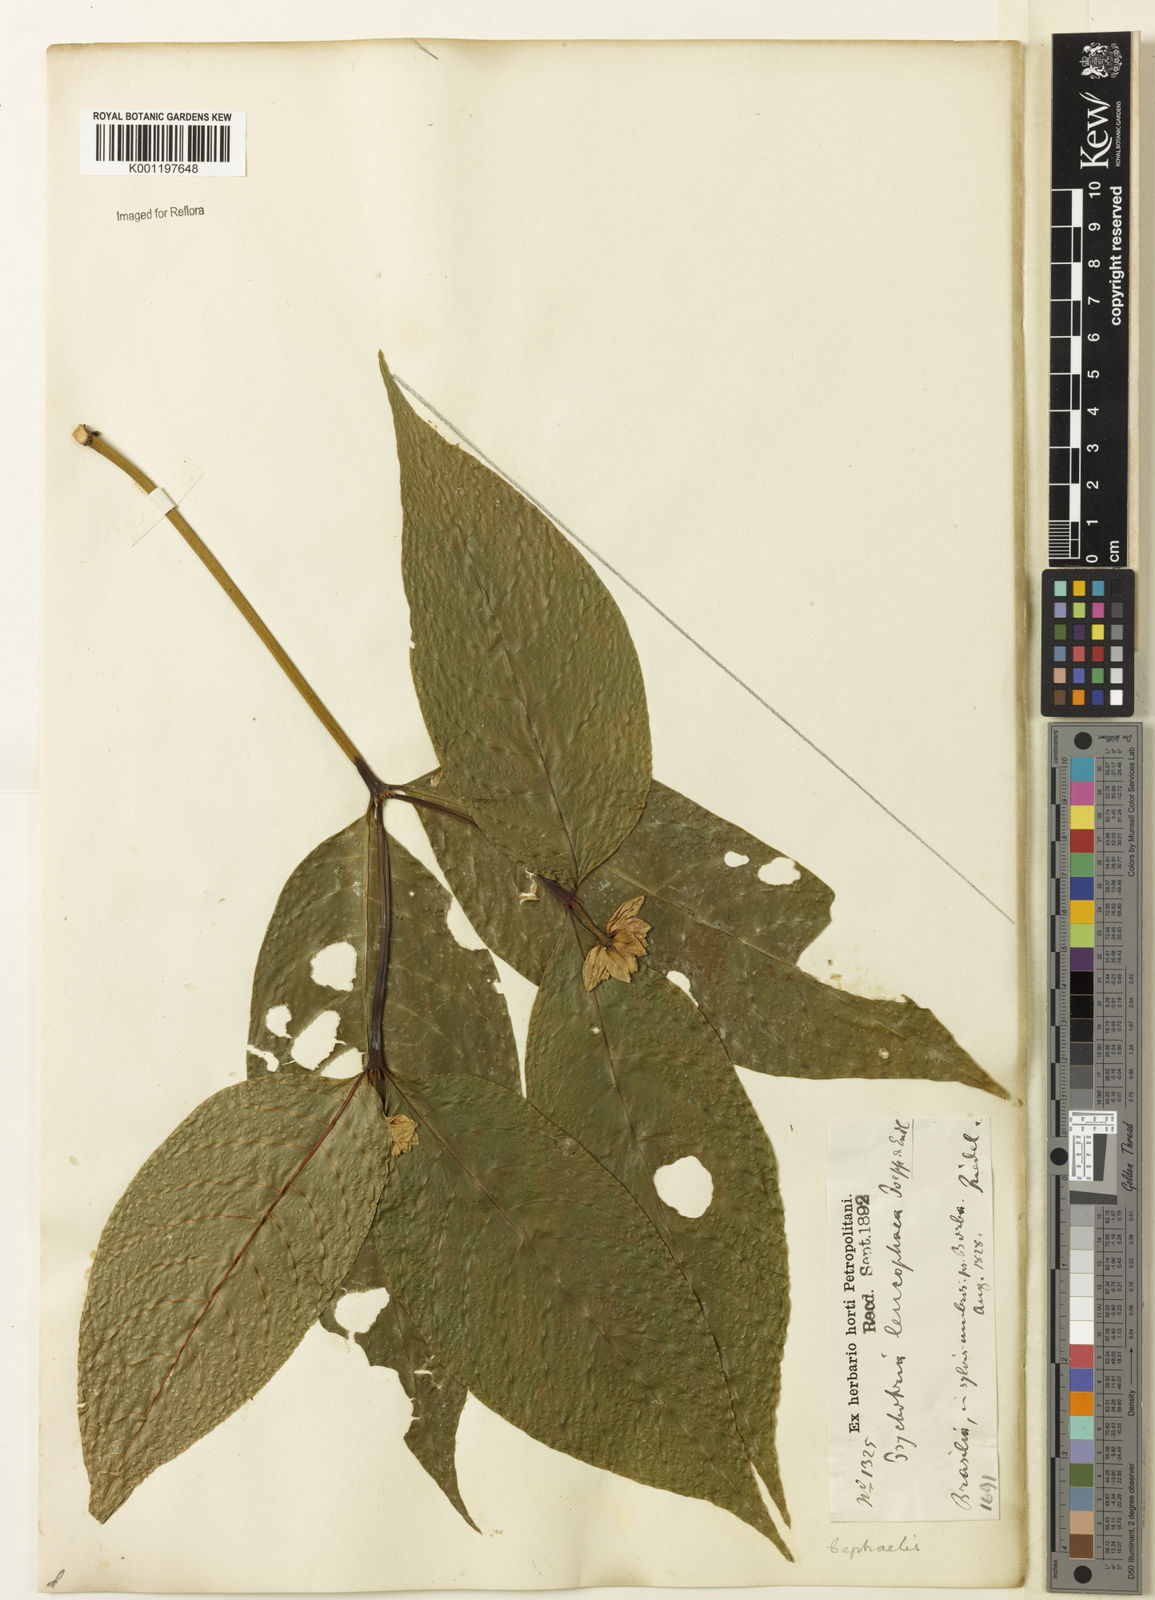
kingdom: Plantae
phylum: Tracheophyta
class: Magnoliopsida
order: Gentianales
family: Rubiaceae
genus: Palicourea
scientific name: Palicourea justiciifolia
